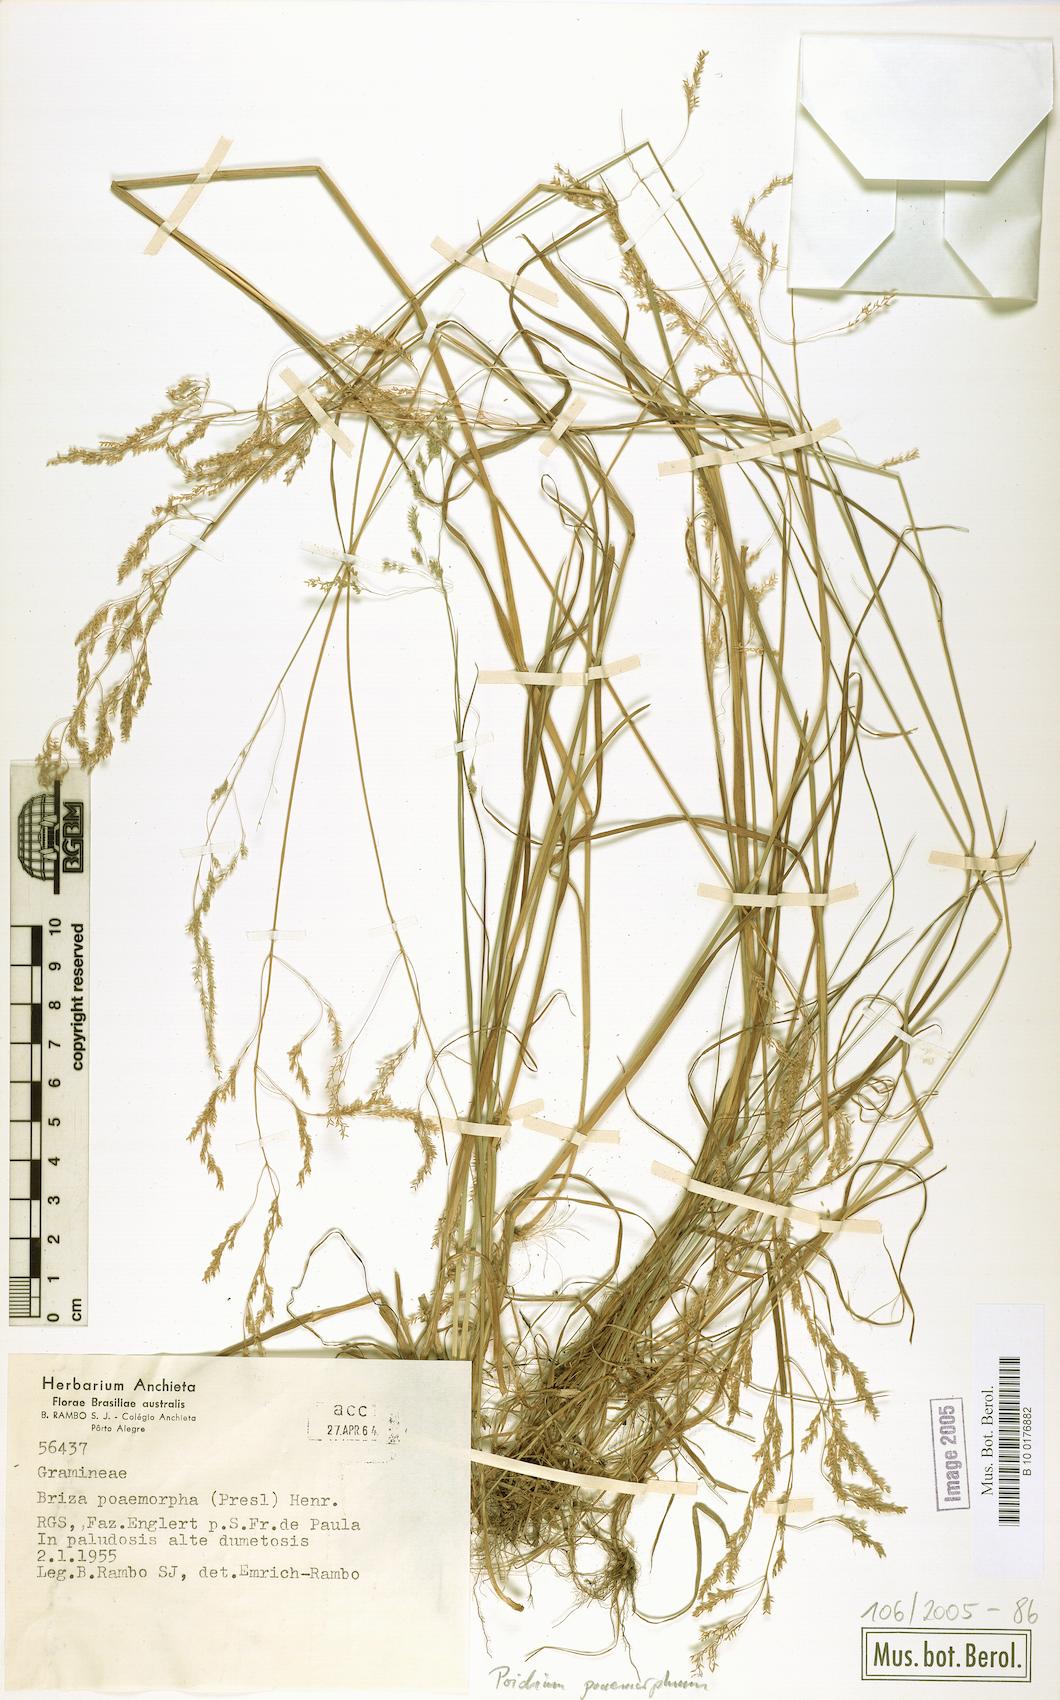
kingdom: Plantae
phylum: Tracheophyta
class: Liliopsida
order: Poales
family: Poaceae
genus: Chascolytrum
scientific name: Chascolytrum poomorphum
